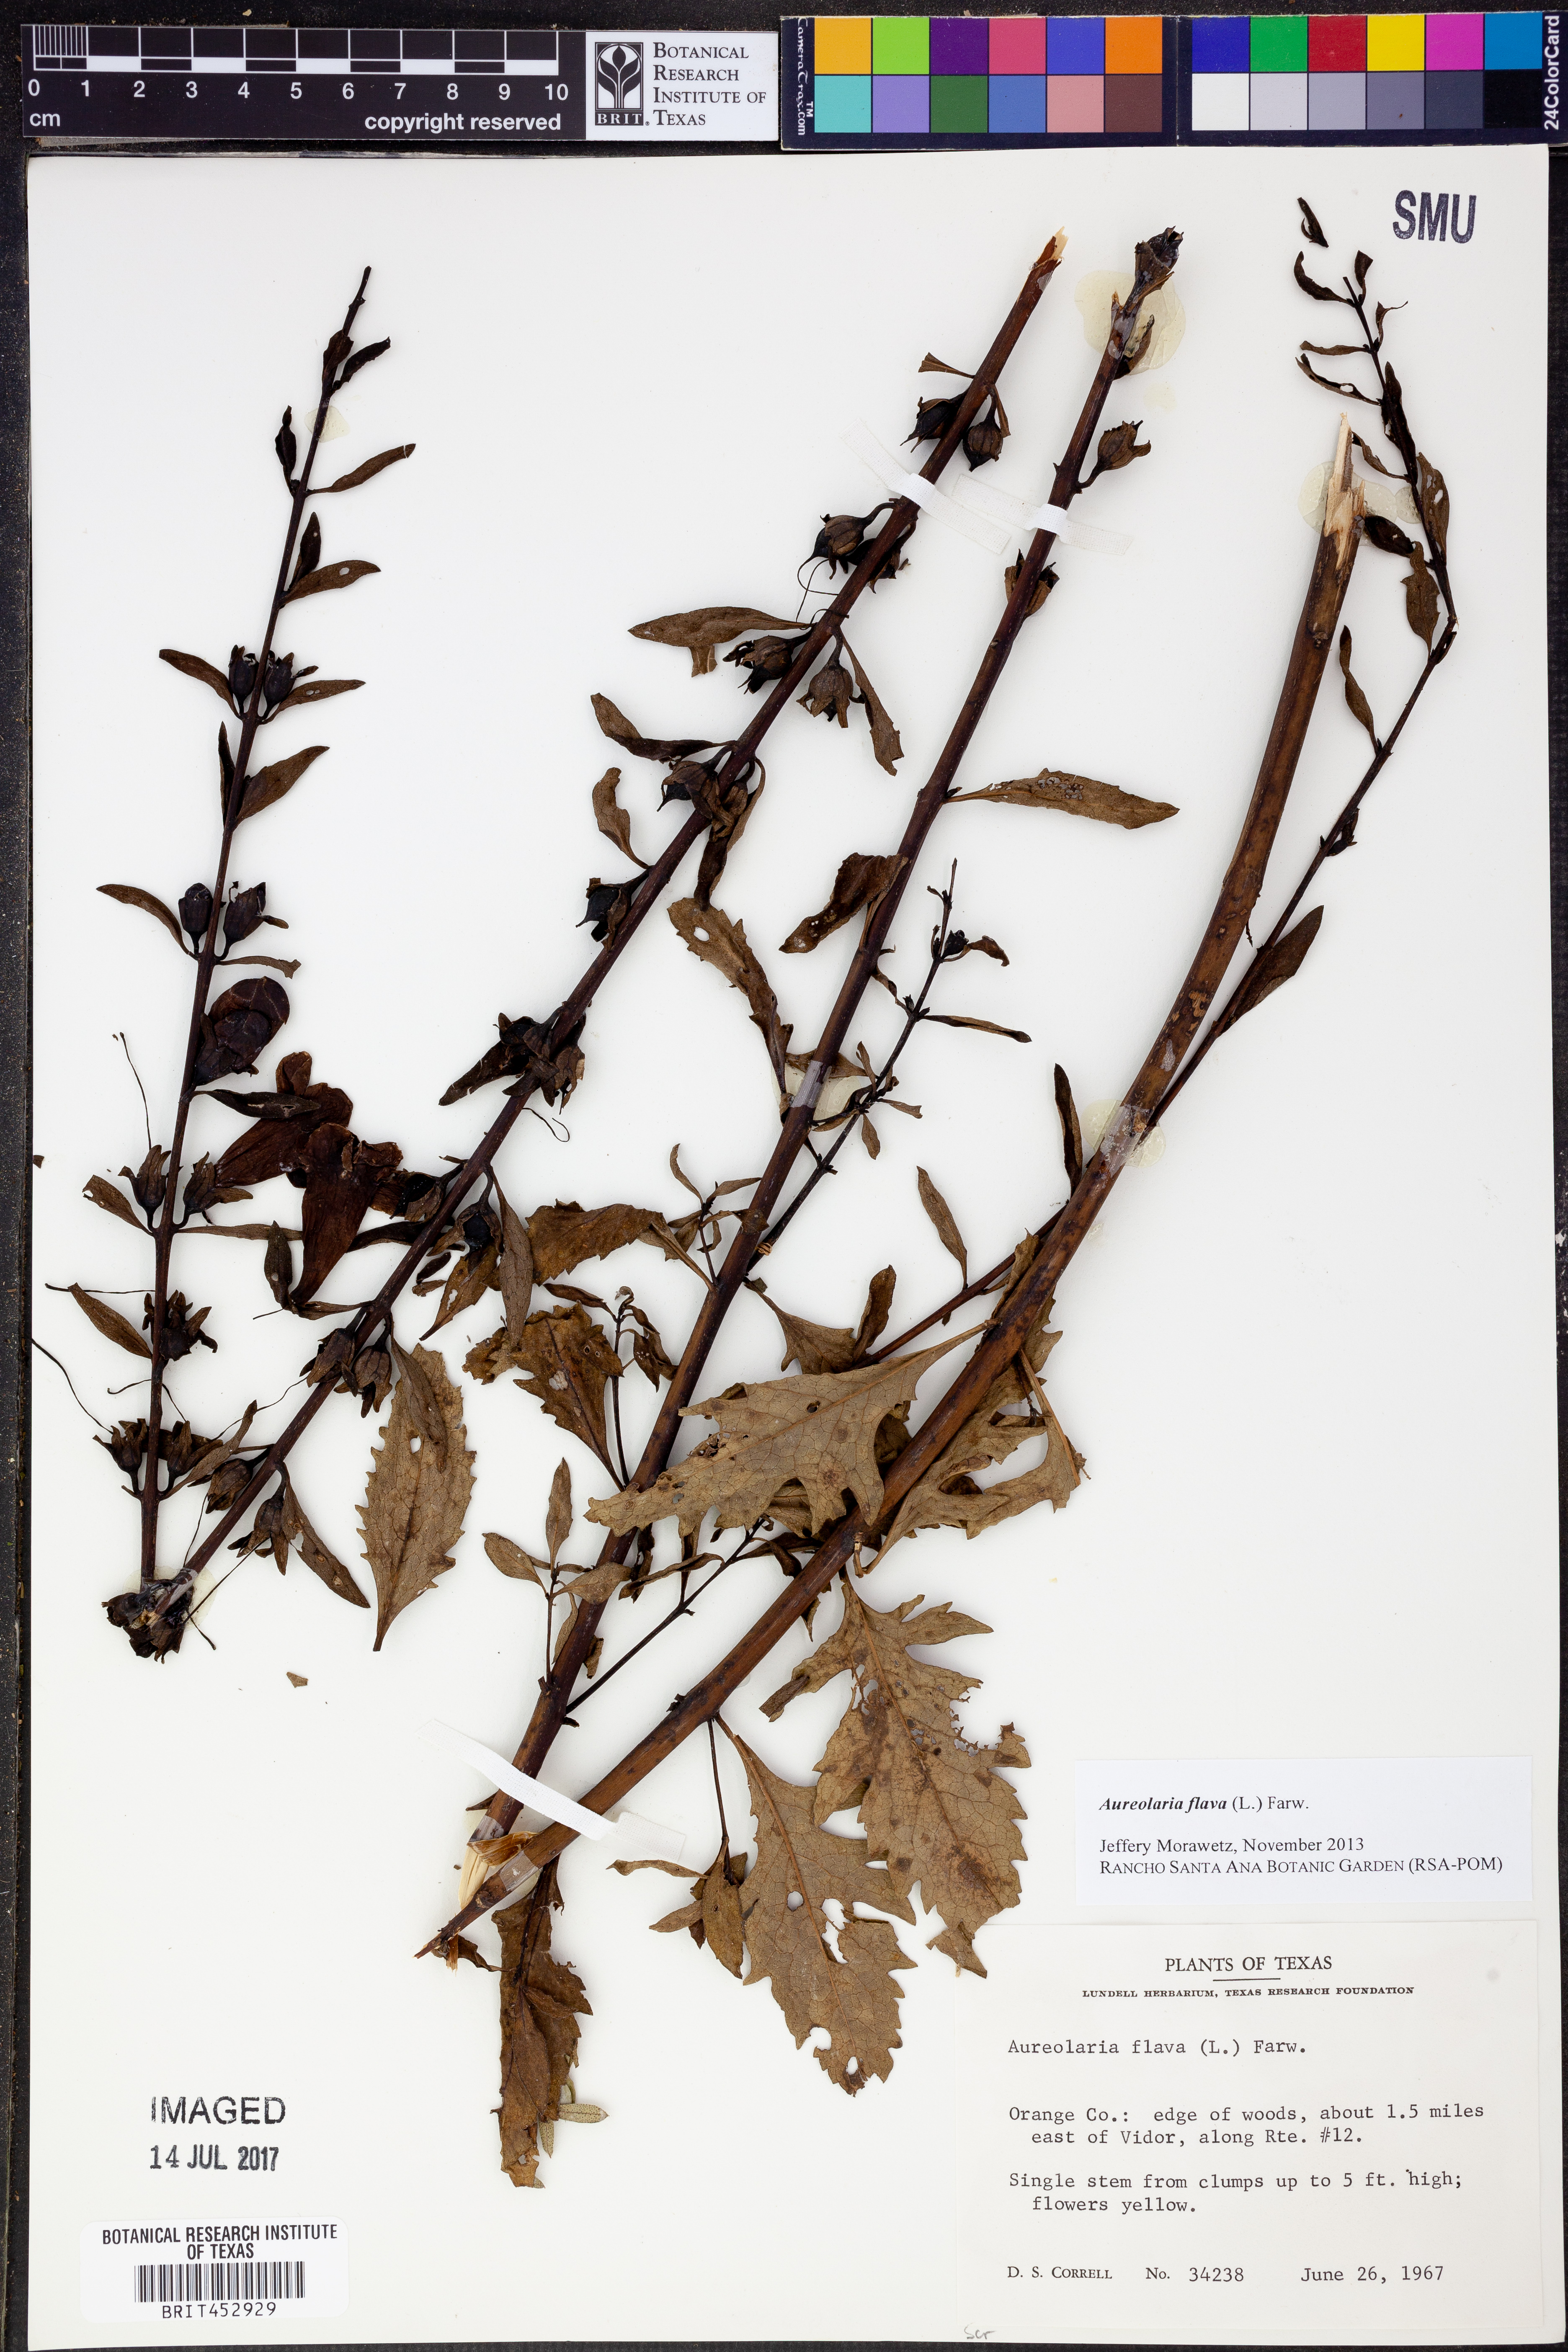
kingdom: Plantae
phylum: Tracheophyta
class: Magnoliopsida
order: Lamiales
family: Orobanchaceae
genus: Aureolaria
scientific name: Aureolaria flava
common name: Smooth false foxglove
